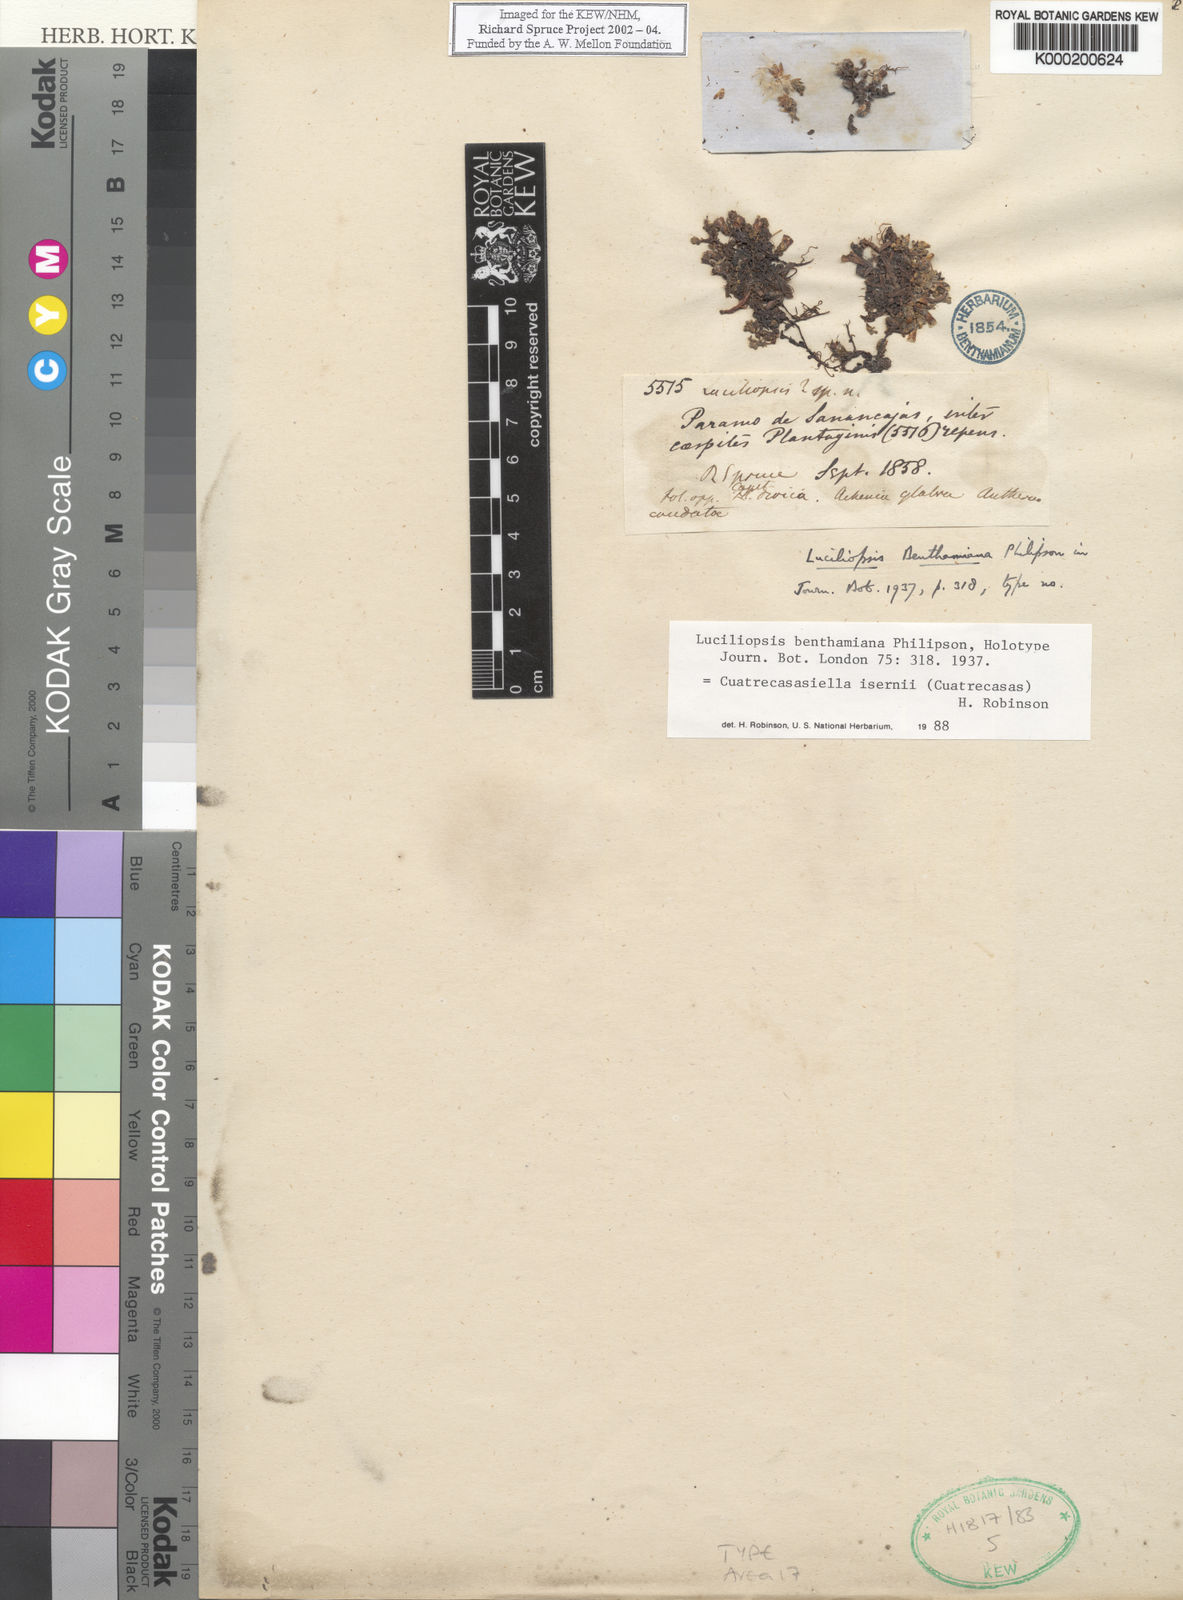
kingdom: Plantae
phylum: Tracheophyta
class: Magnoliopsida
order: Asterales
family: Asteraceae
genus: Cuatrecasasiella
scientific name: Cuatrecasasiella isernii
